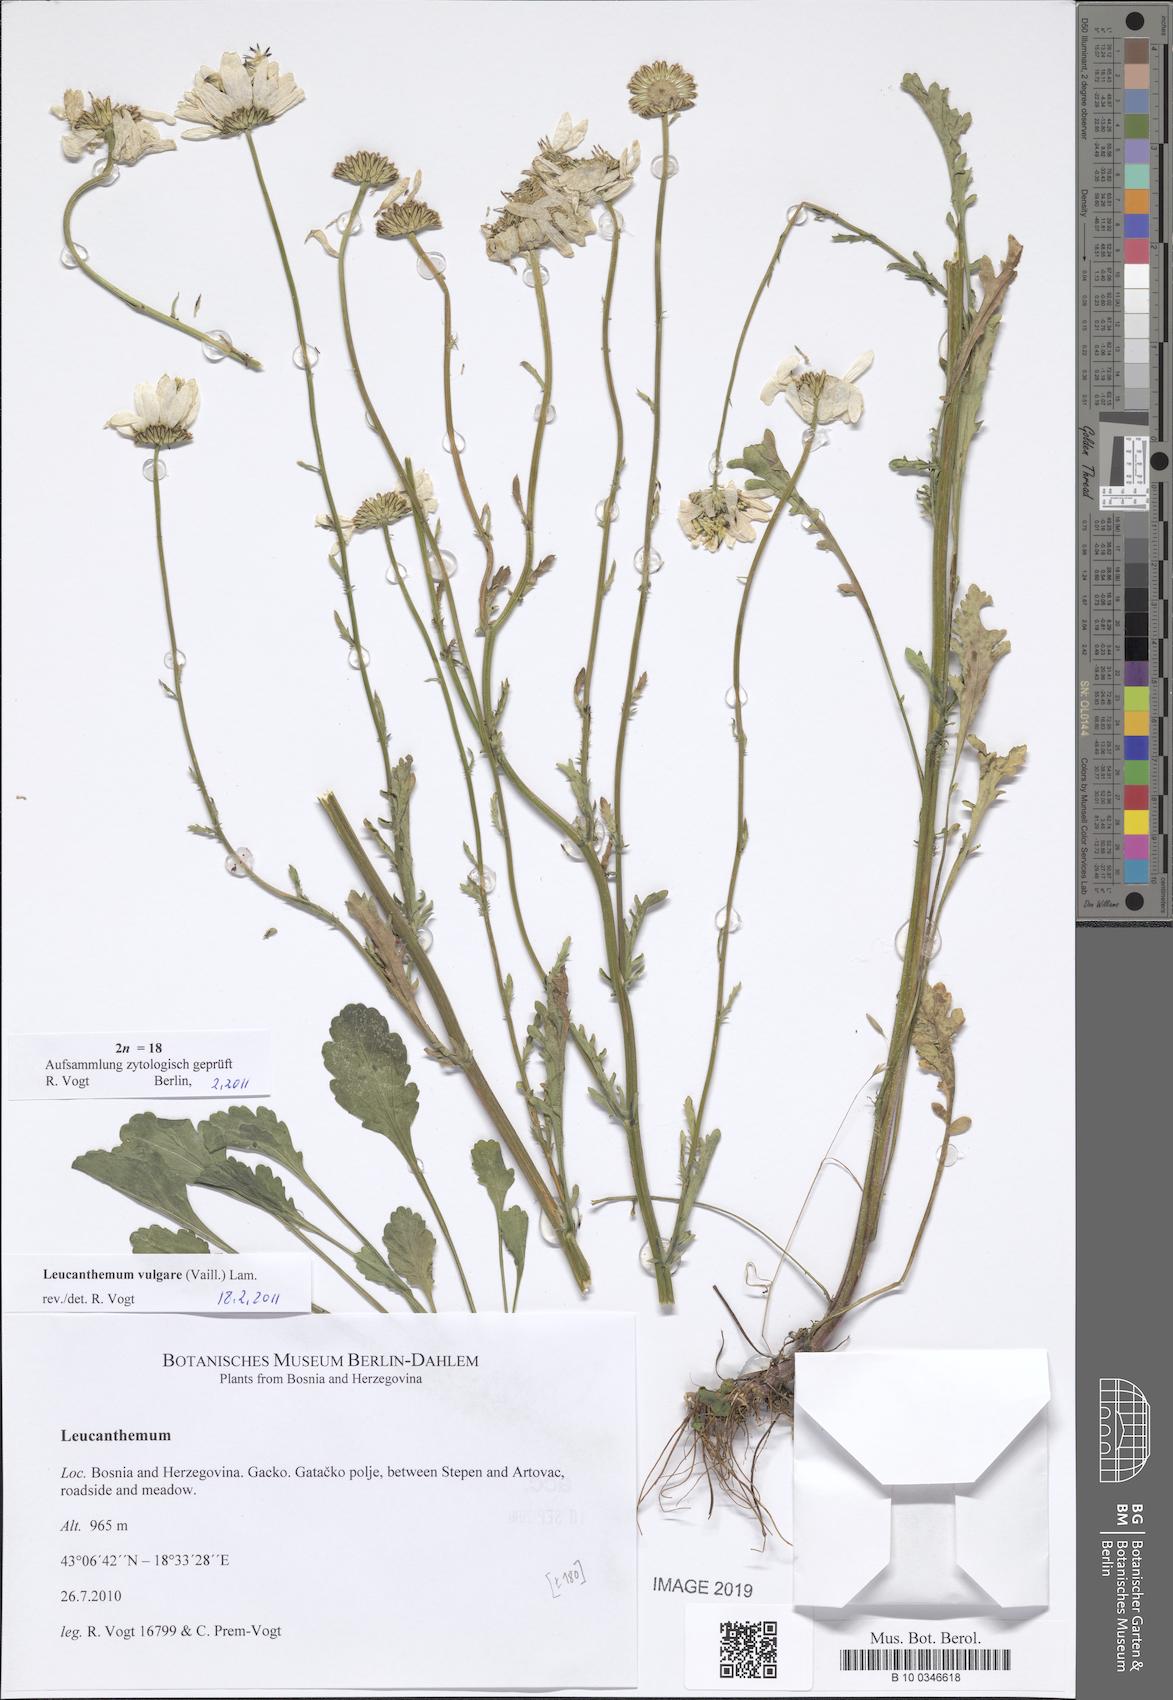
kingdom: Plantae
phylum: Tracheophyta
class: Magnoliopsida
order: Asterales
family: Asteraceae
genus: Leucanthemum
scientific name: Leucanthemum vulgare
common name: Oxeye daisy
